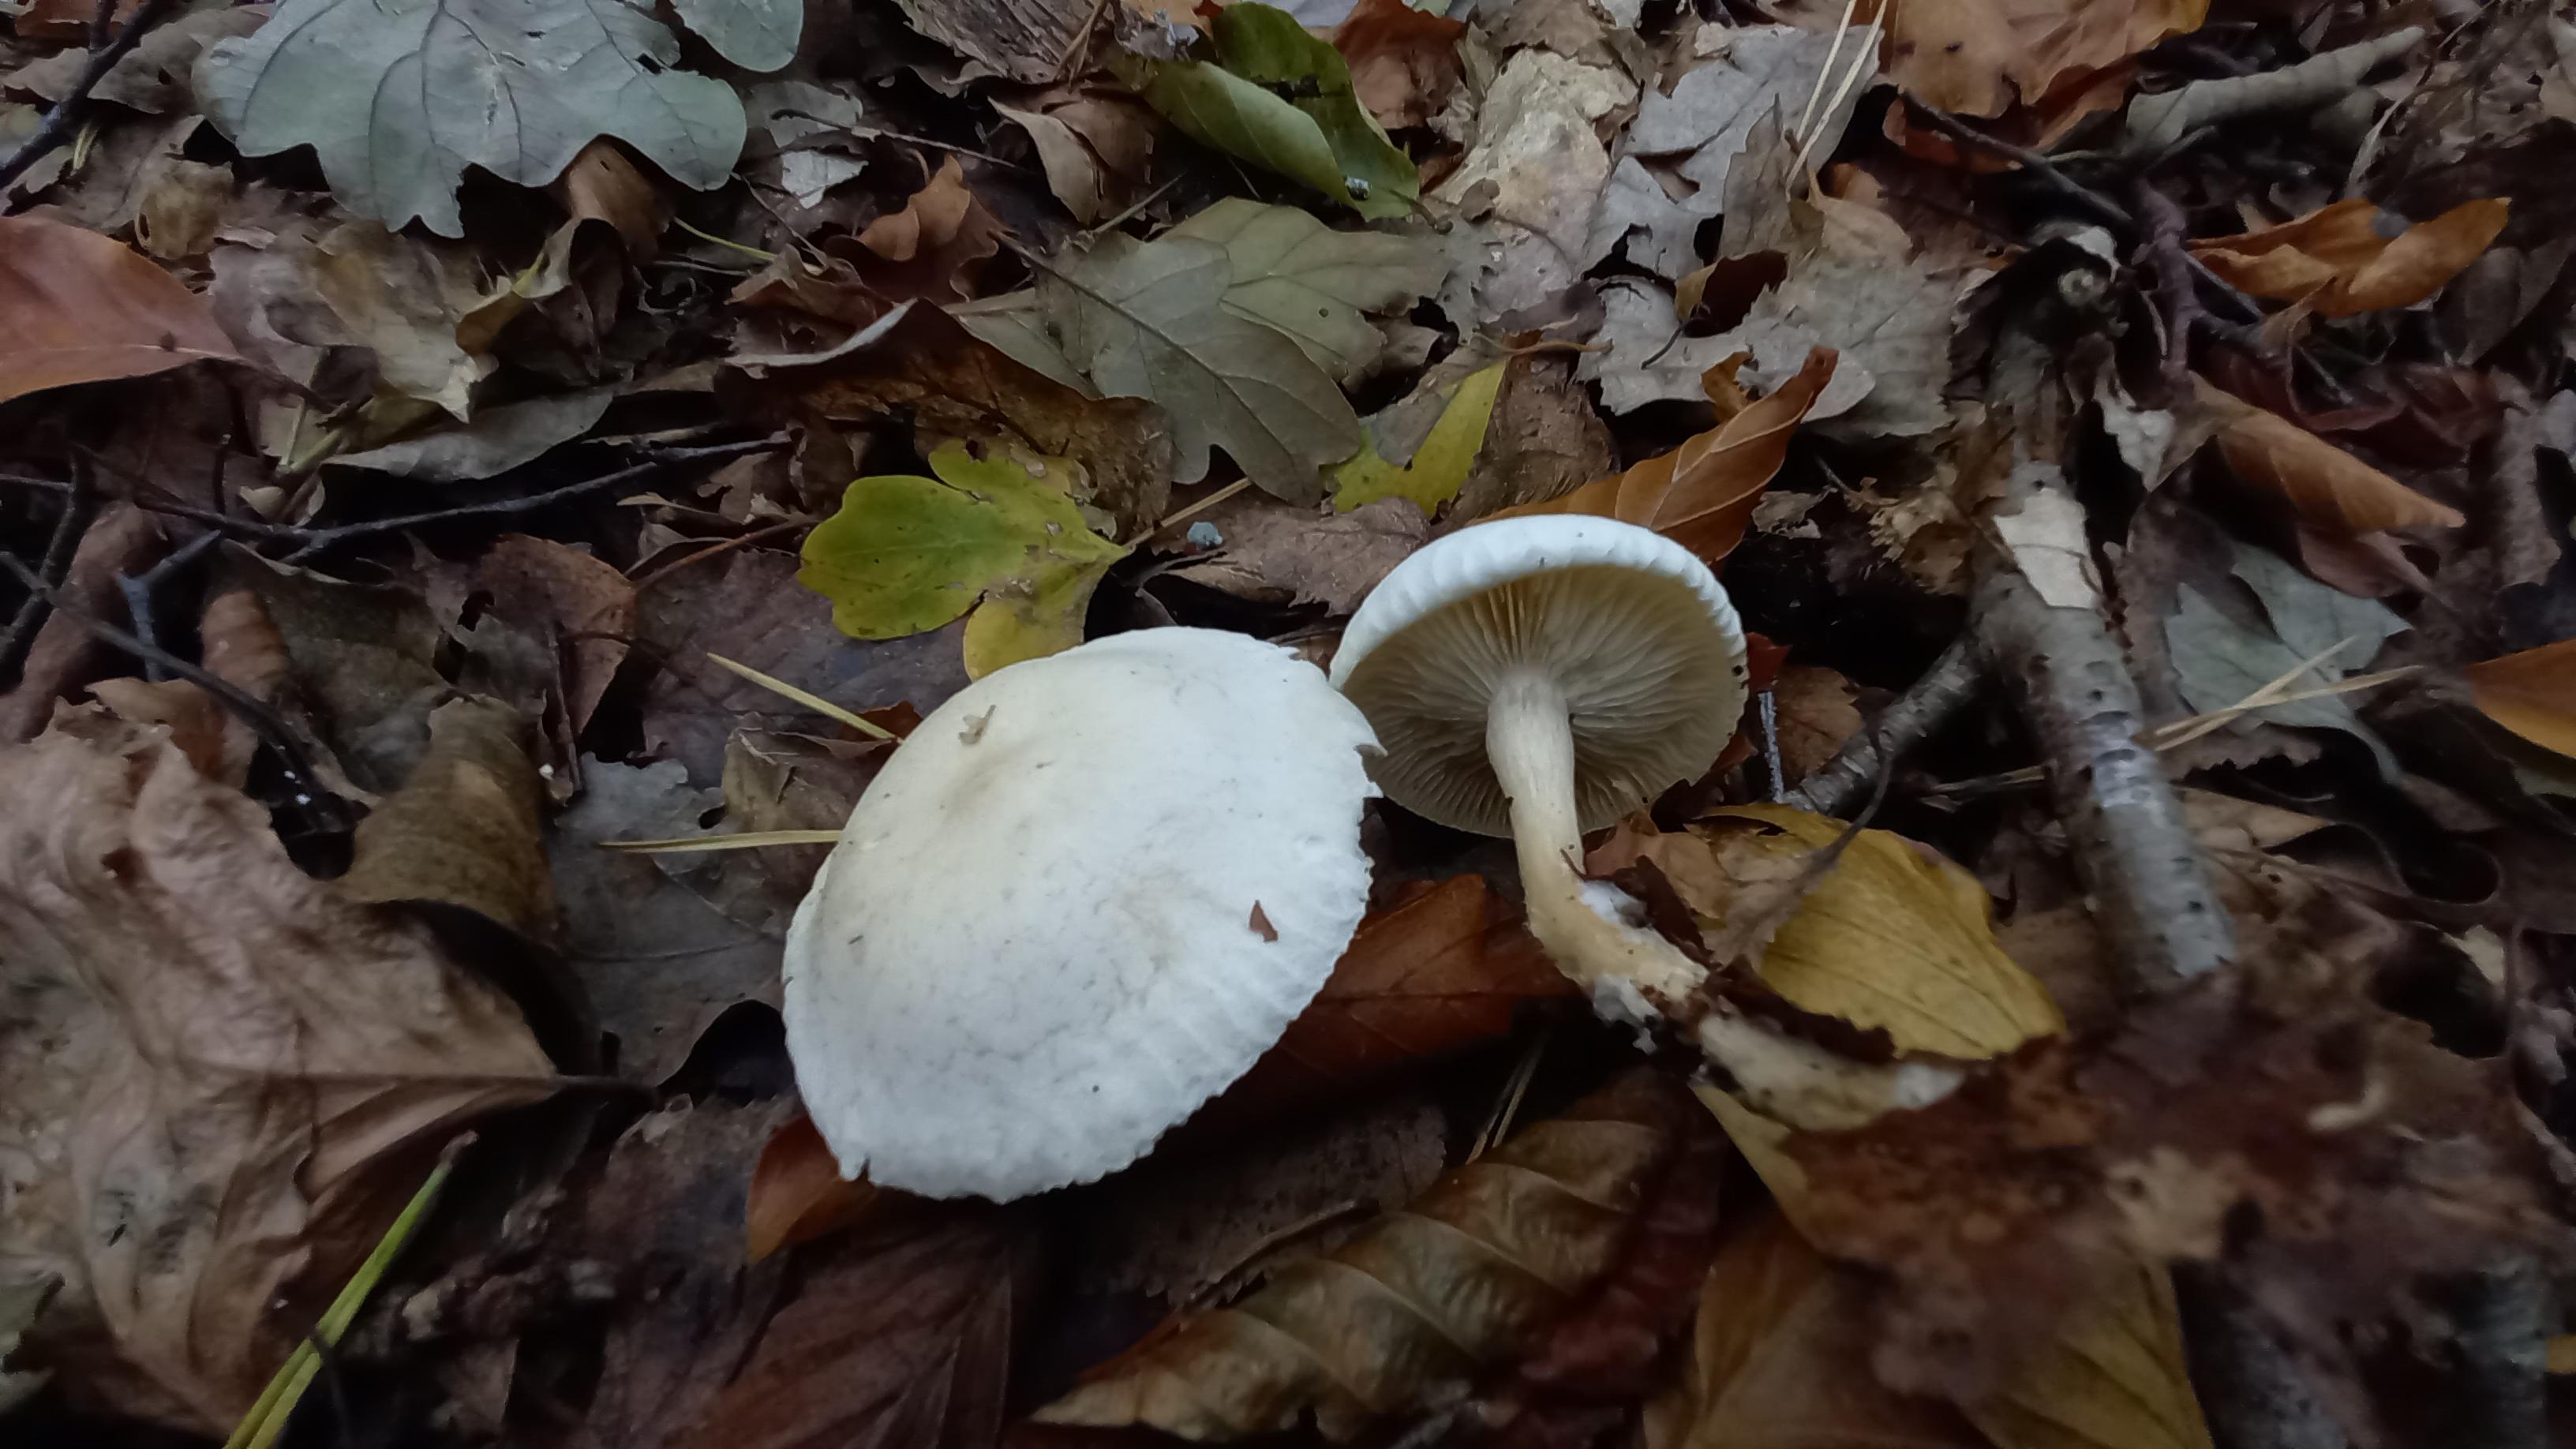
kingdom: Fungi
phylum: Basidiomycota
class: Agaricomycetes
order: Agaricales
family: Tricholomataceae
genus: Clitocybe
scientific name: Clitocybe phyllophila
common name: løv-tragthat
